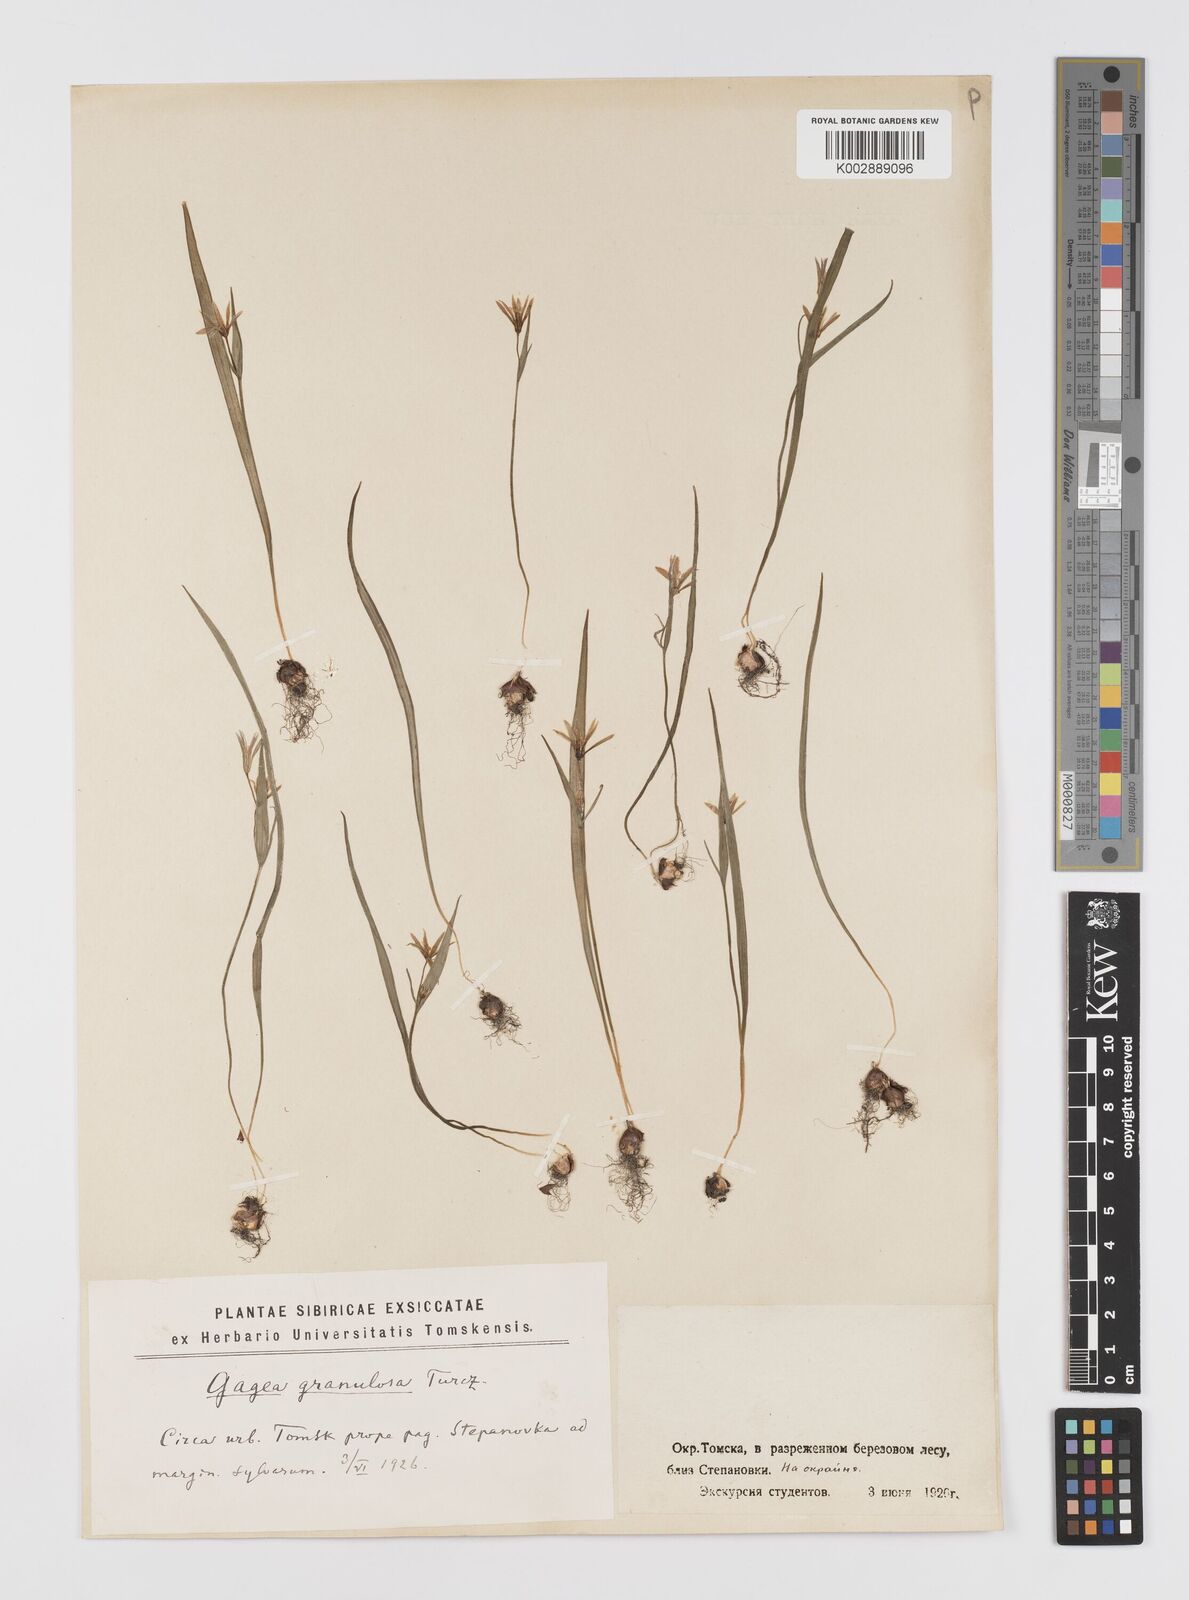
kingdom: Plantae
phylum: Tracheophyta
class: Liliopsida
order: Liliales
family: Liliaceae
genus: Gagea
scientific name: Gagea granulosa
